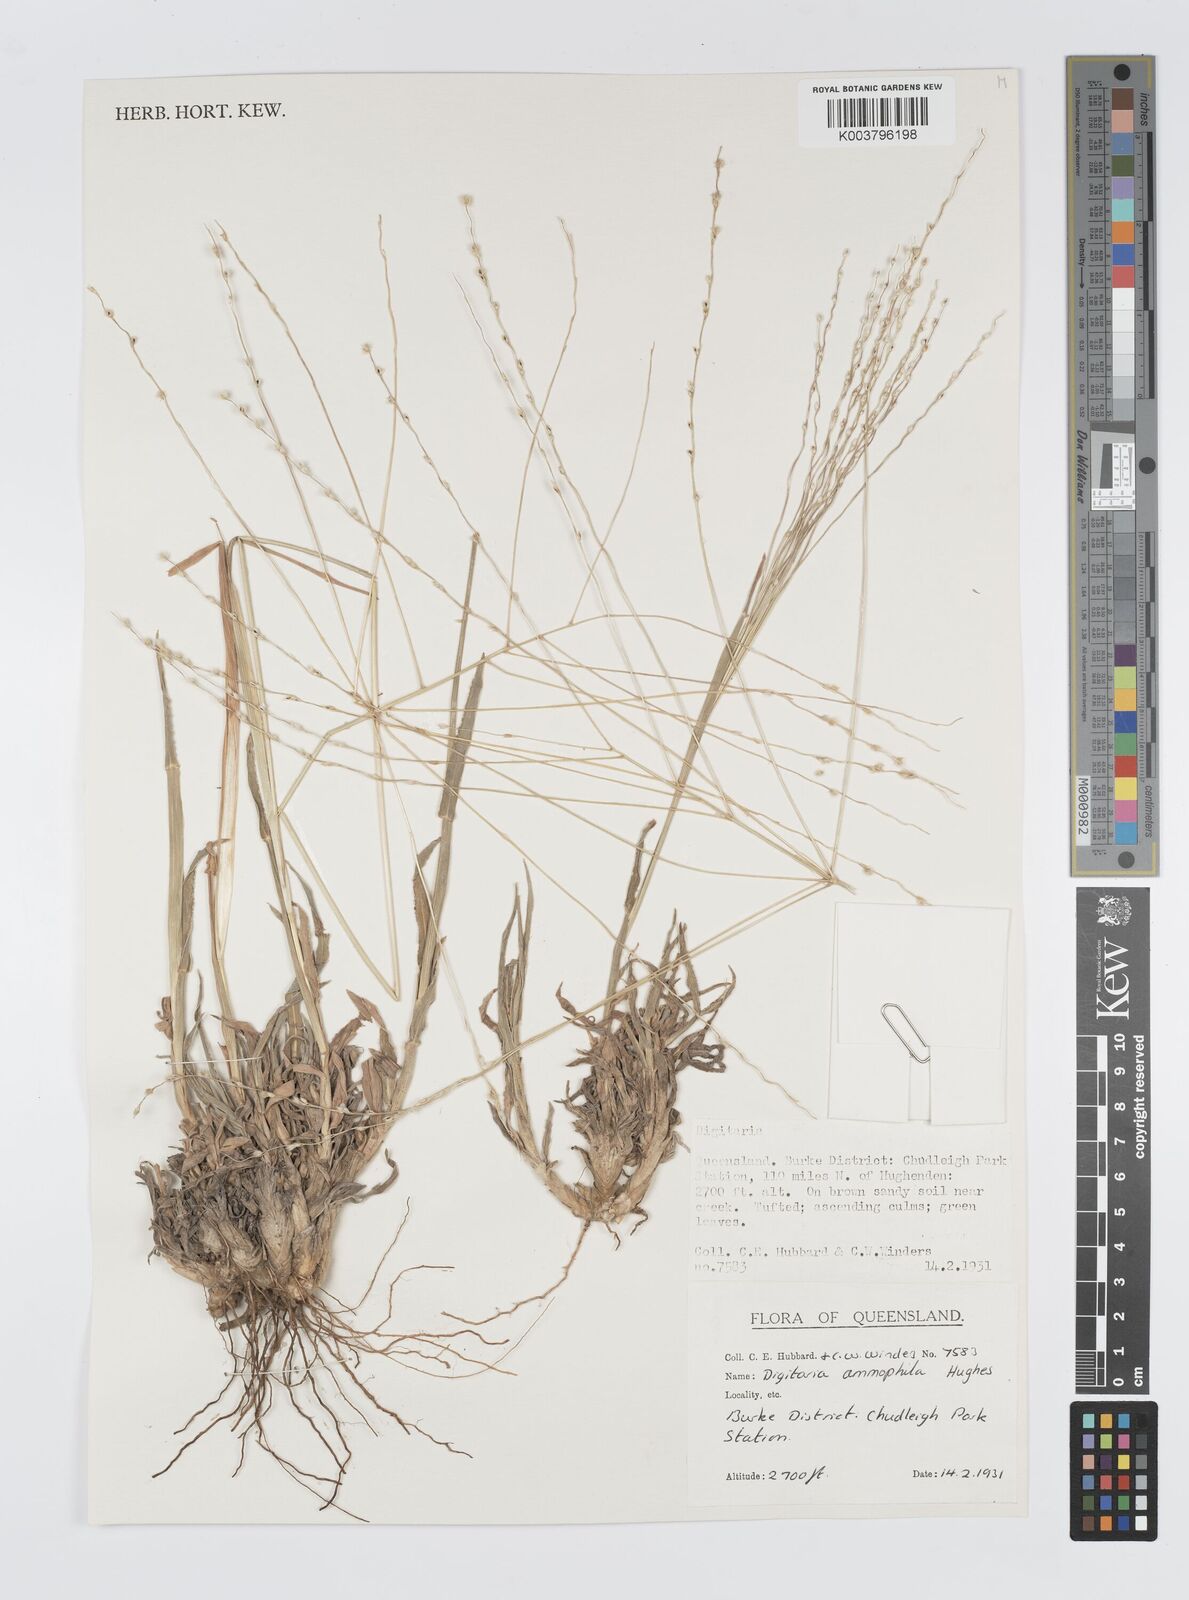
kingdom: Plantae
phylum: Tracheophyta
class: Liliopsida
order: Poales
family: Poaceae
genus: Digitaria
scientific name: Digitaria ammophila
